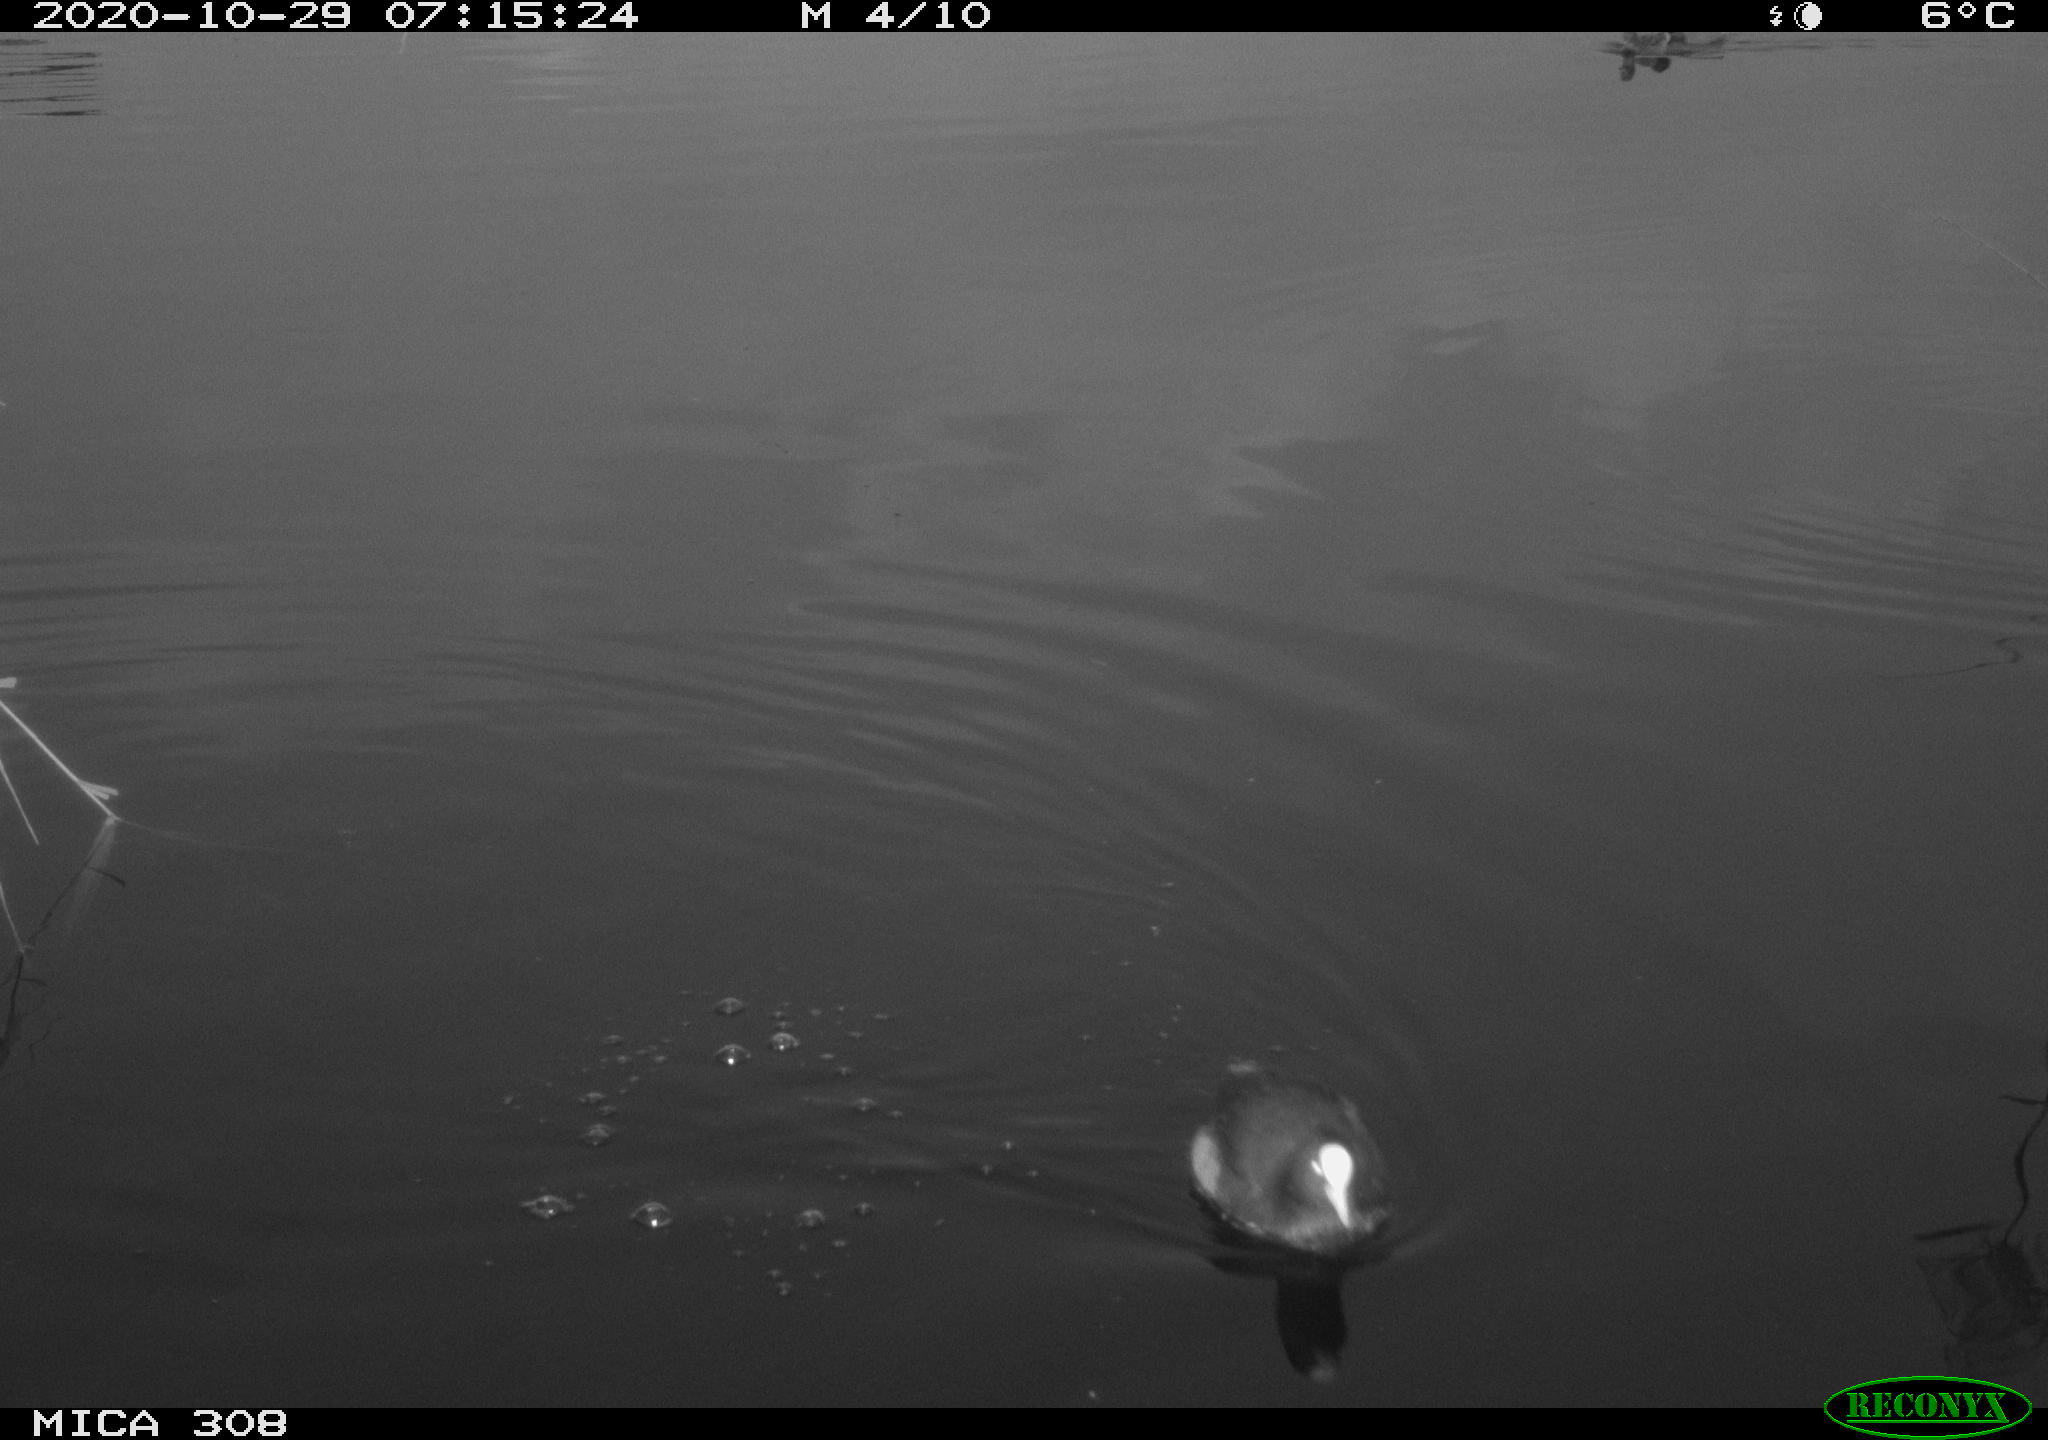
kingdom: Animalia
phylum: Chordata
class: Aves
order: Anseriformes
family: Anatidae
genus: Anas
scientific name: Anas platyrhynchos
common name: Mallard
